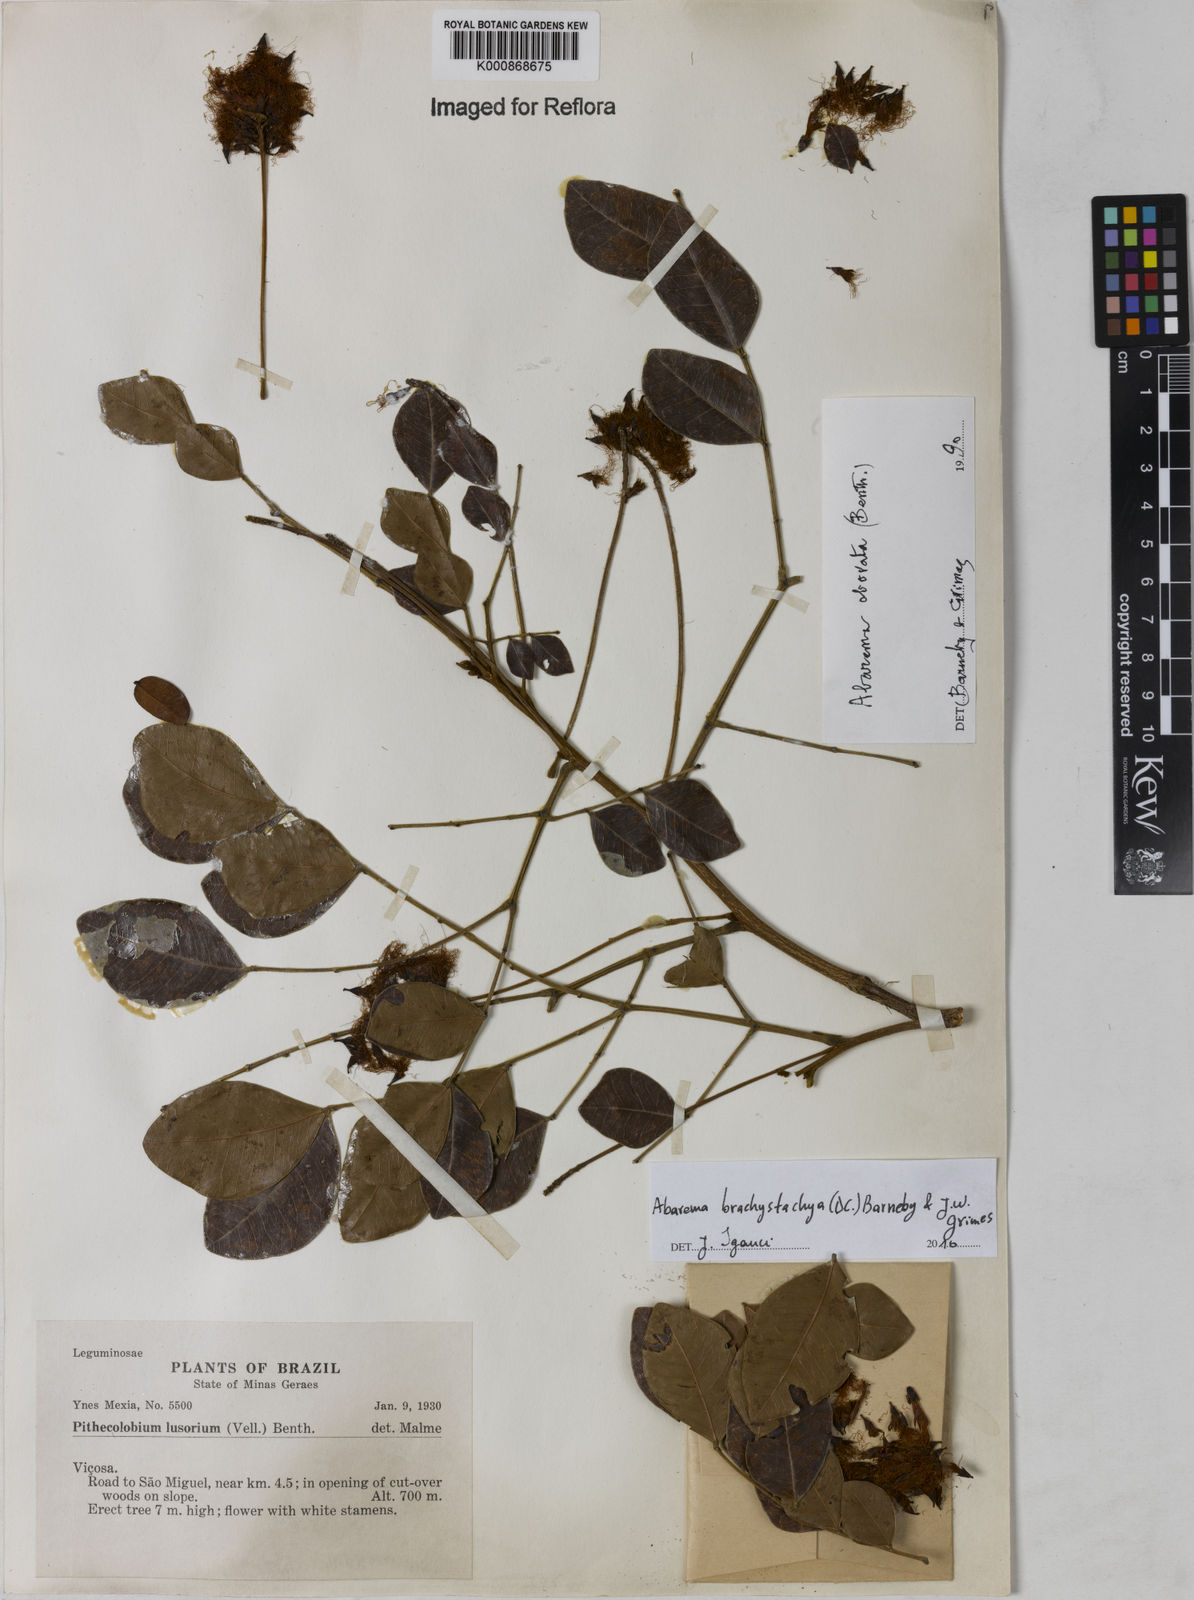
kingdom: Plantae
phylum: Tracheophyta
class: Magnoliopsida
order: Fabales
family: Fabaceae
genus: Abarema
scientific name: Abarema
